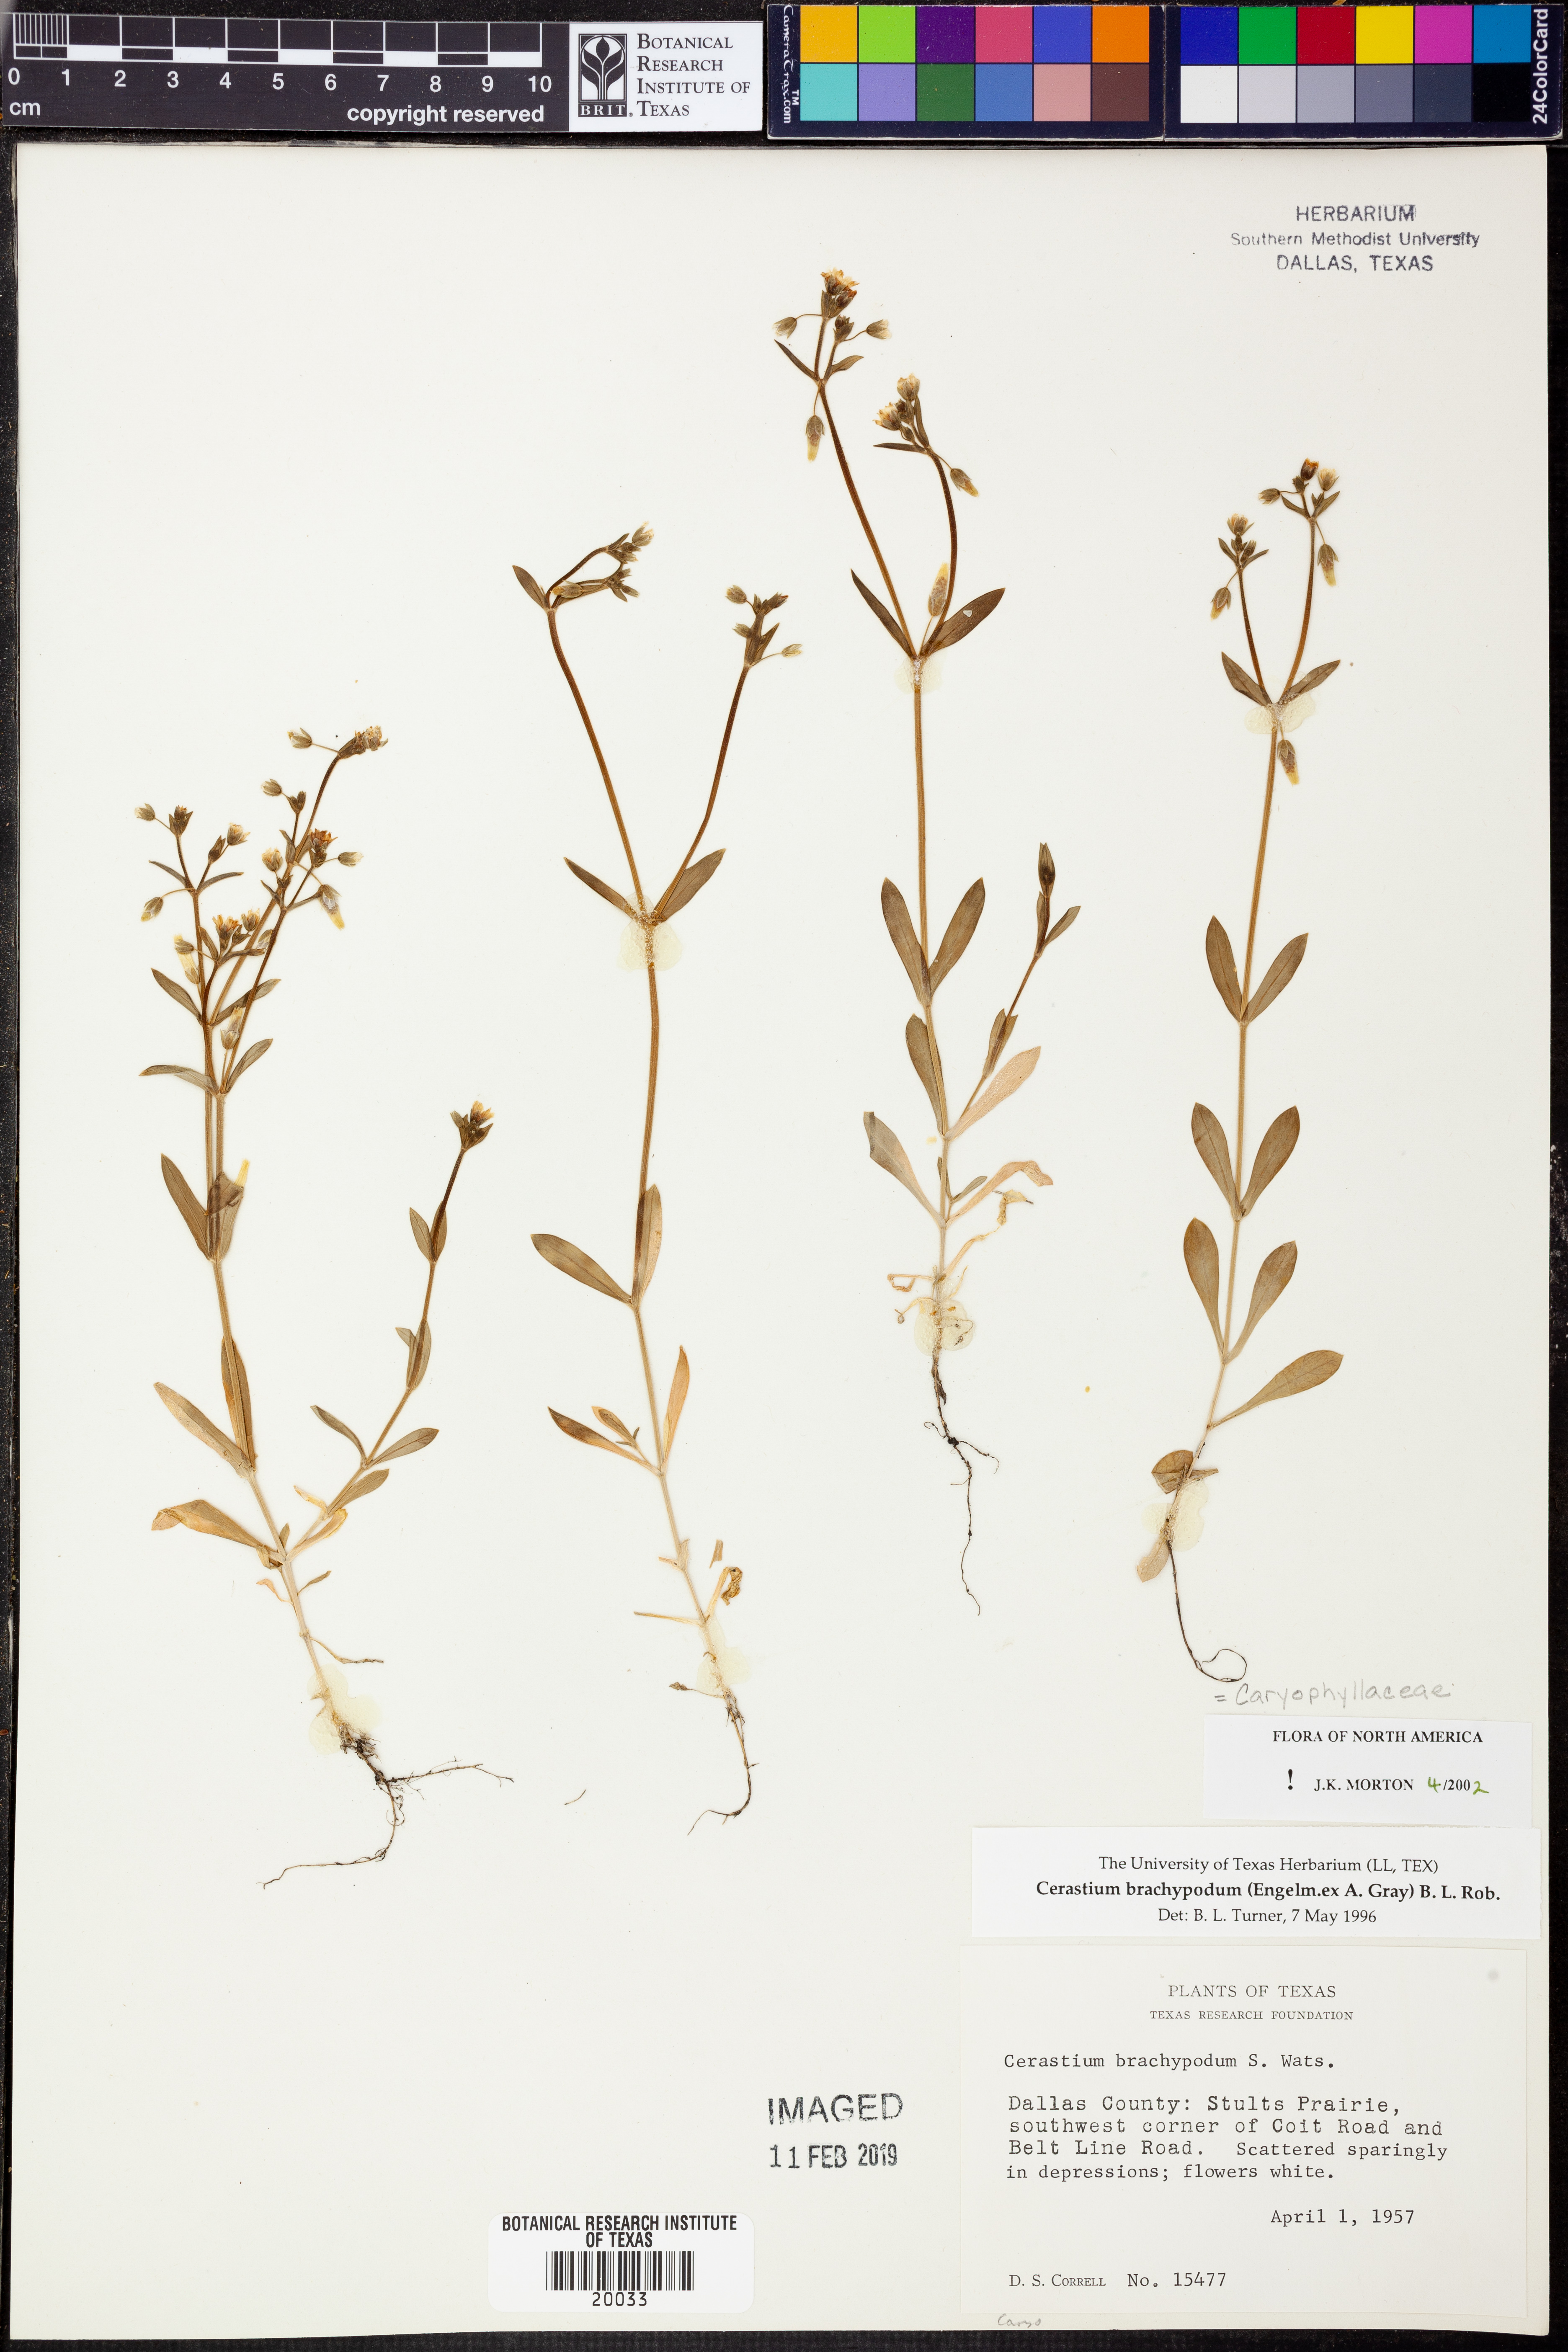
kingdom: Plantae
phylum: Tracheophyta
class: Magnoliopsida
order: Caryophyllales
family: Caryophyllaceae
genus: Cerastium
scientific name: Cerastium brachypodum
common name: Short-pedicelled nodding chickweed
